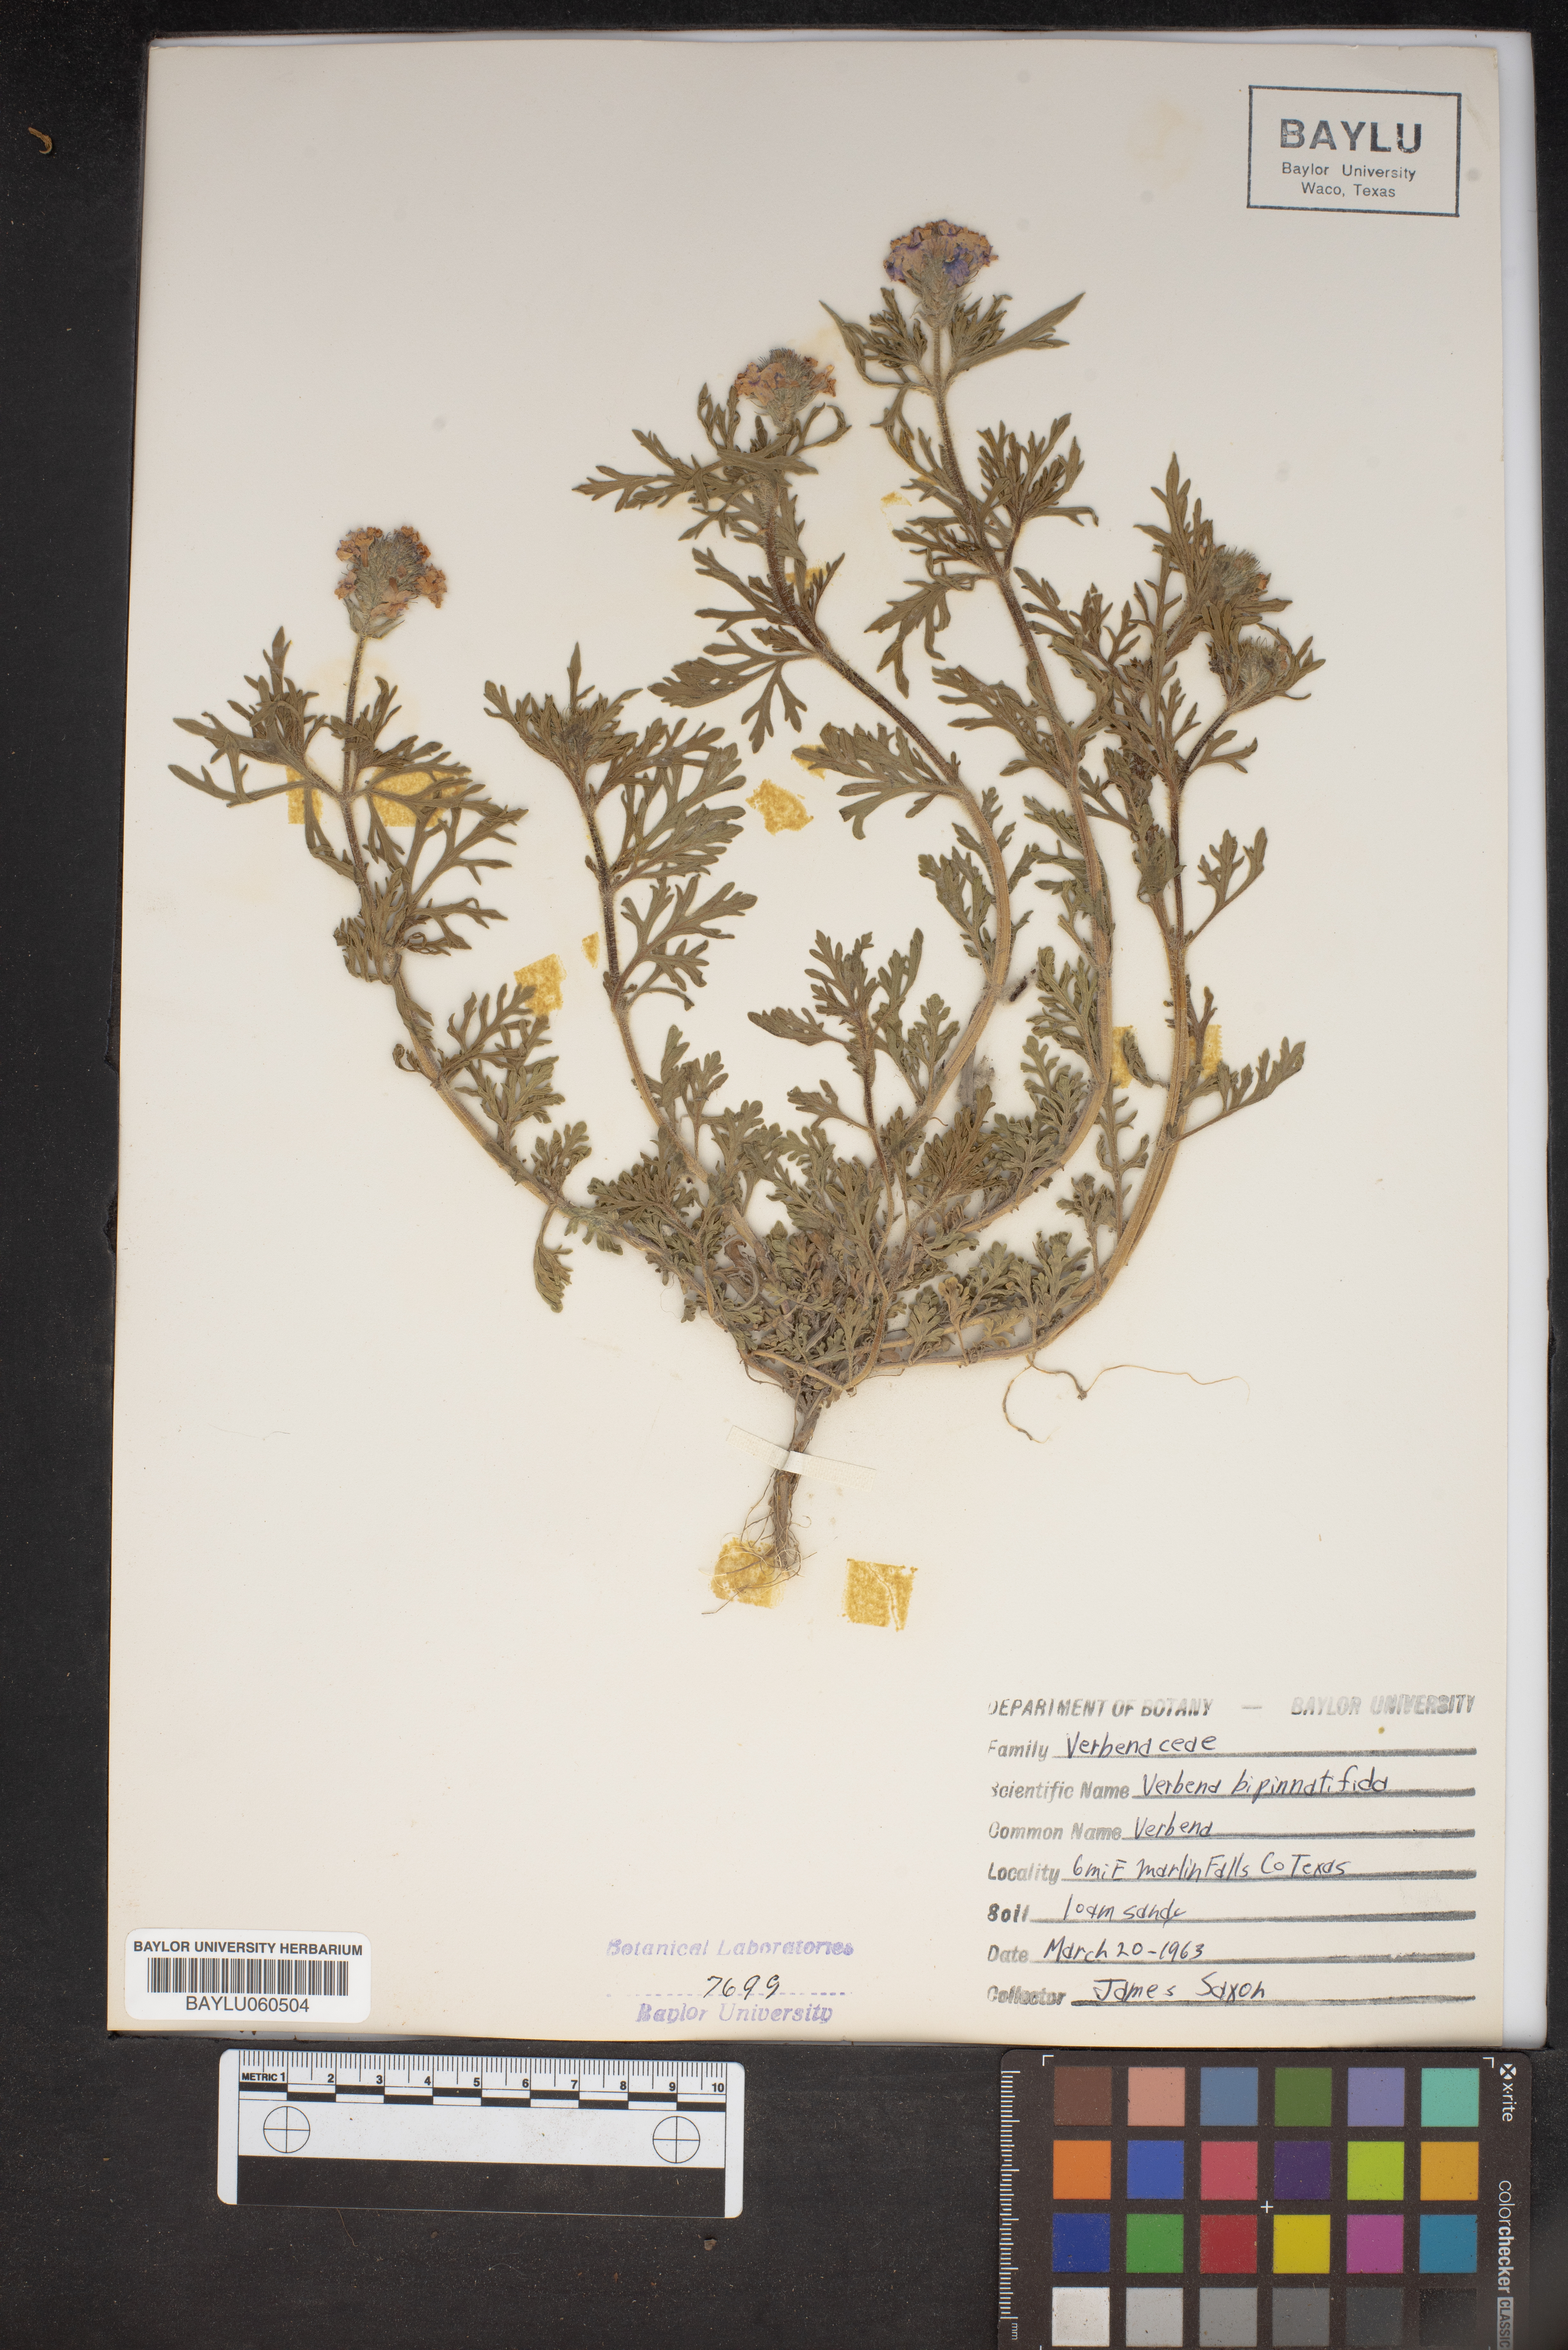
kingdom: Plantae
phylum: Tracheophyta
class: Magnoliopsida
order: Lamiales
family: Verbenaceae
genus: Verbena
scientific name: Verbena bipinnatifida
